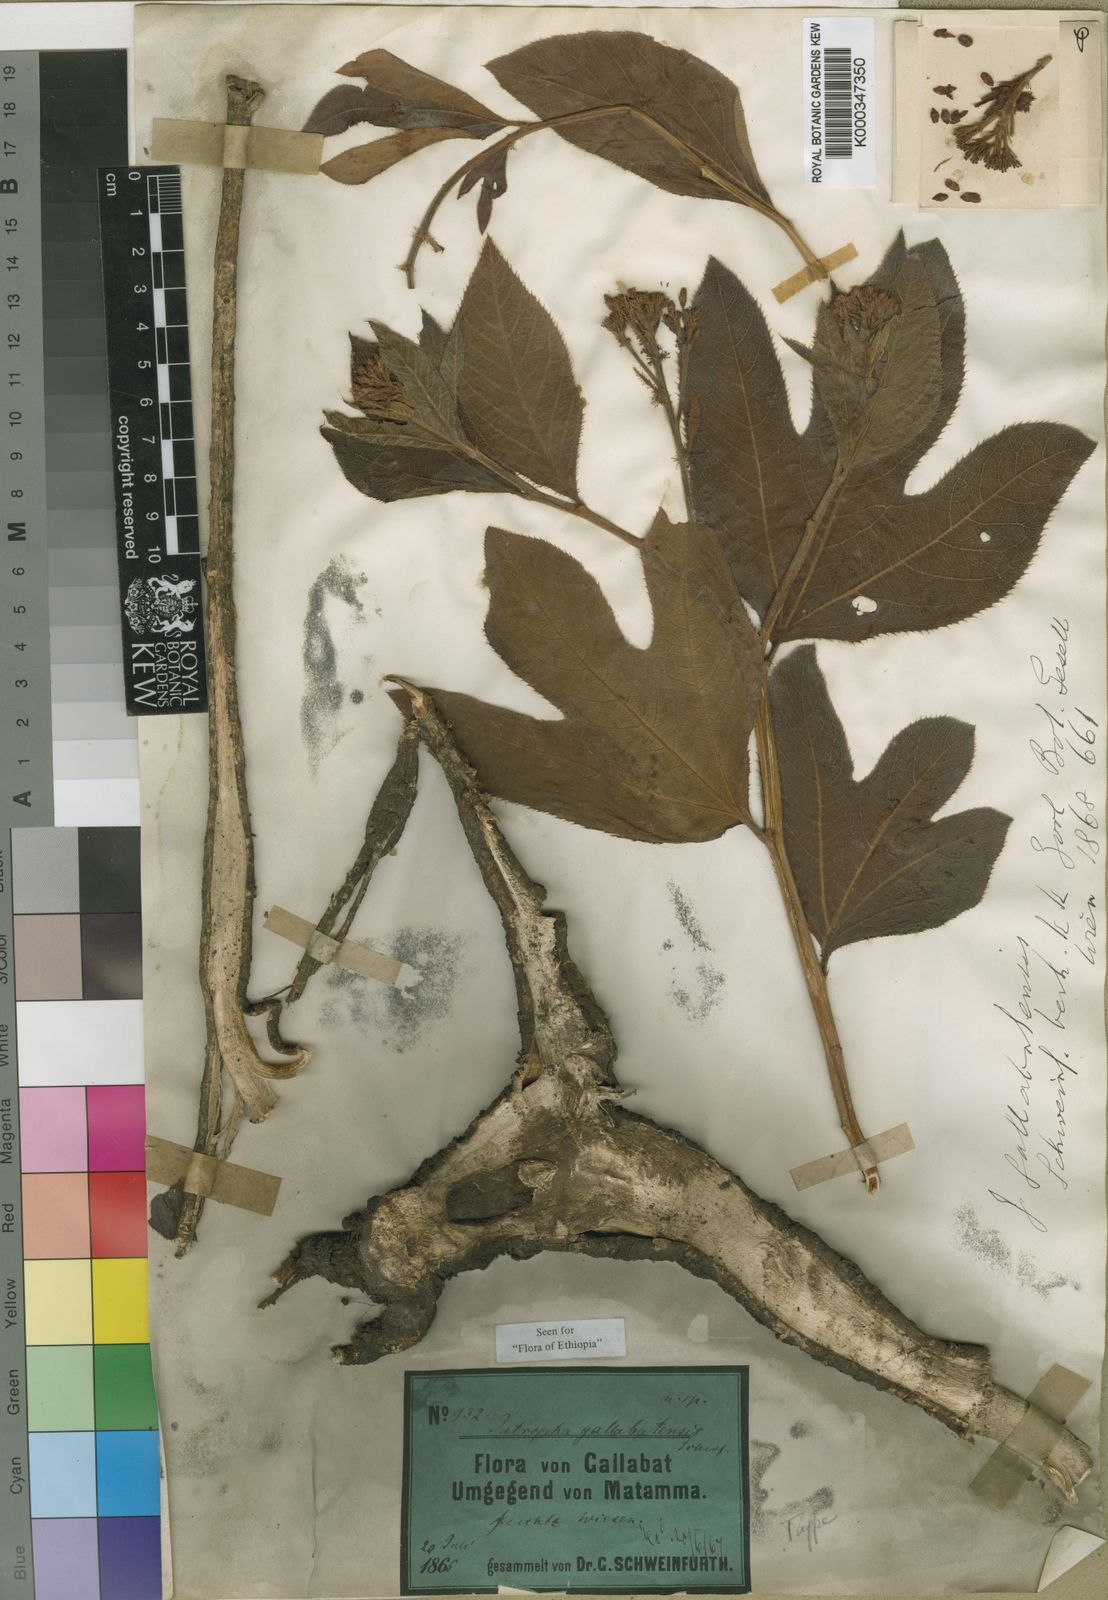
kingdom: Plantae
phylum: Tracheophyta
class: Magnoliopsida
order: Malpighiales
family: Euphorbiaceae
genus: Jatropha
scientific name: Jatropha gallabatensis
